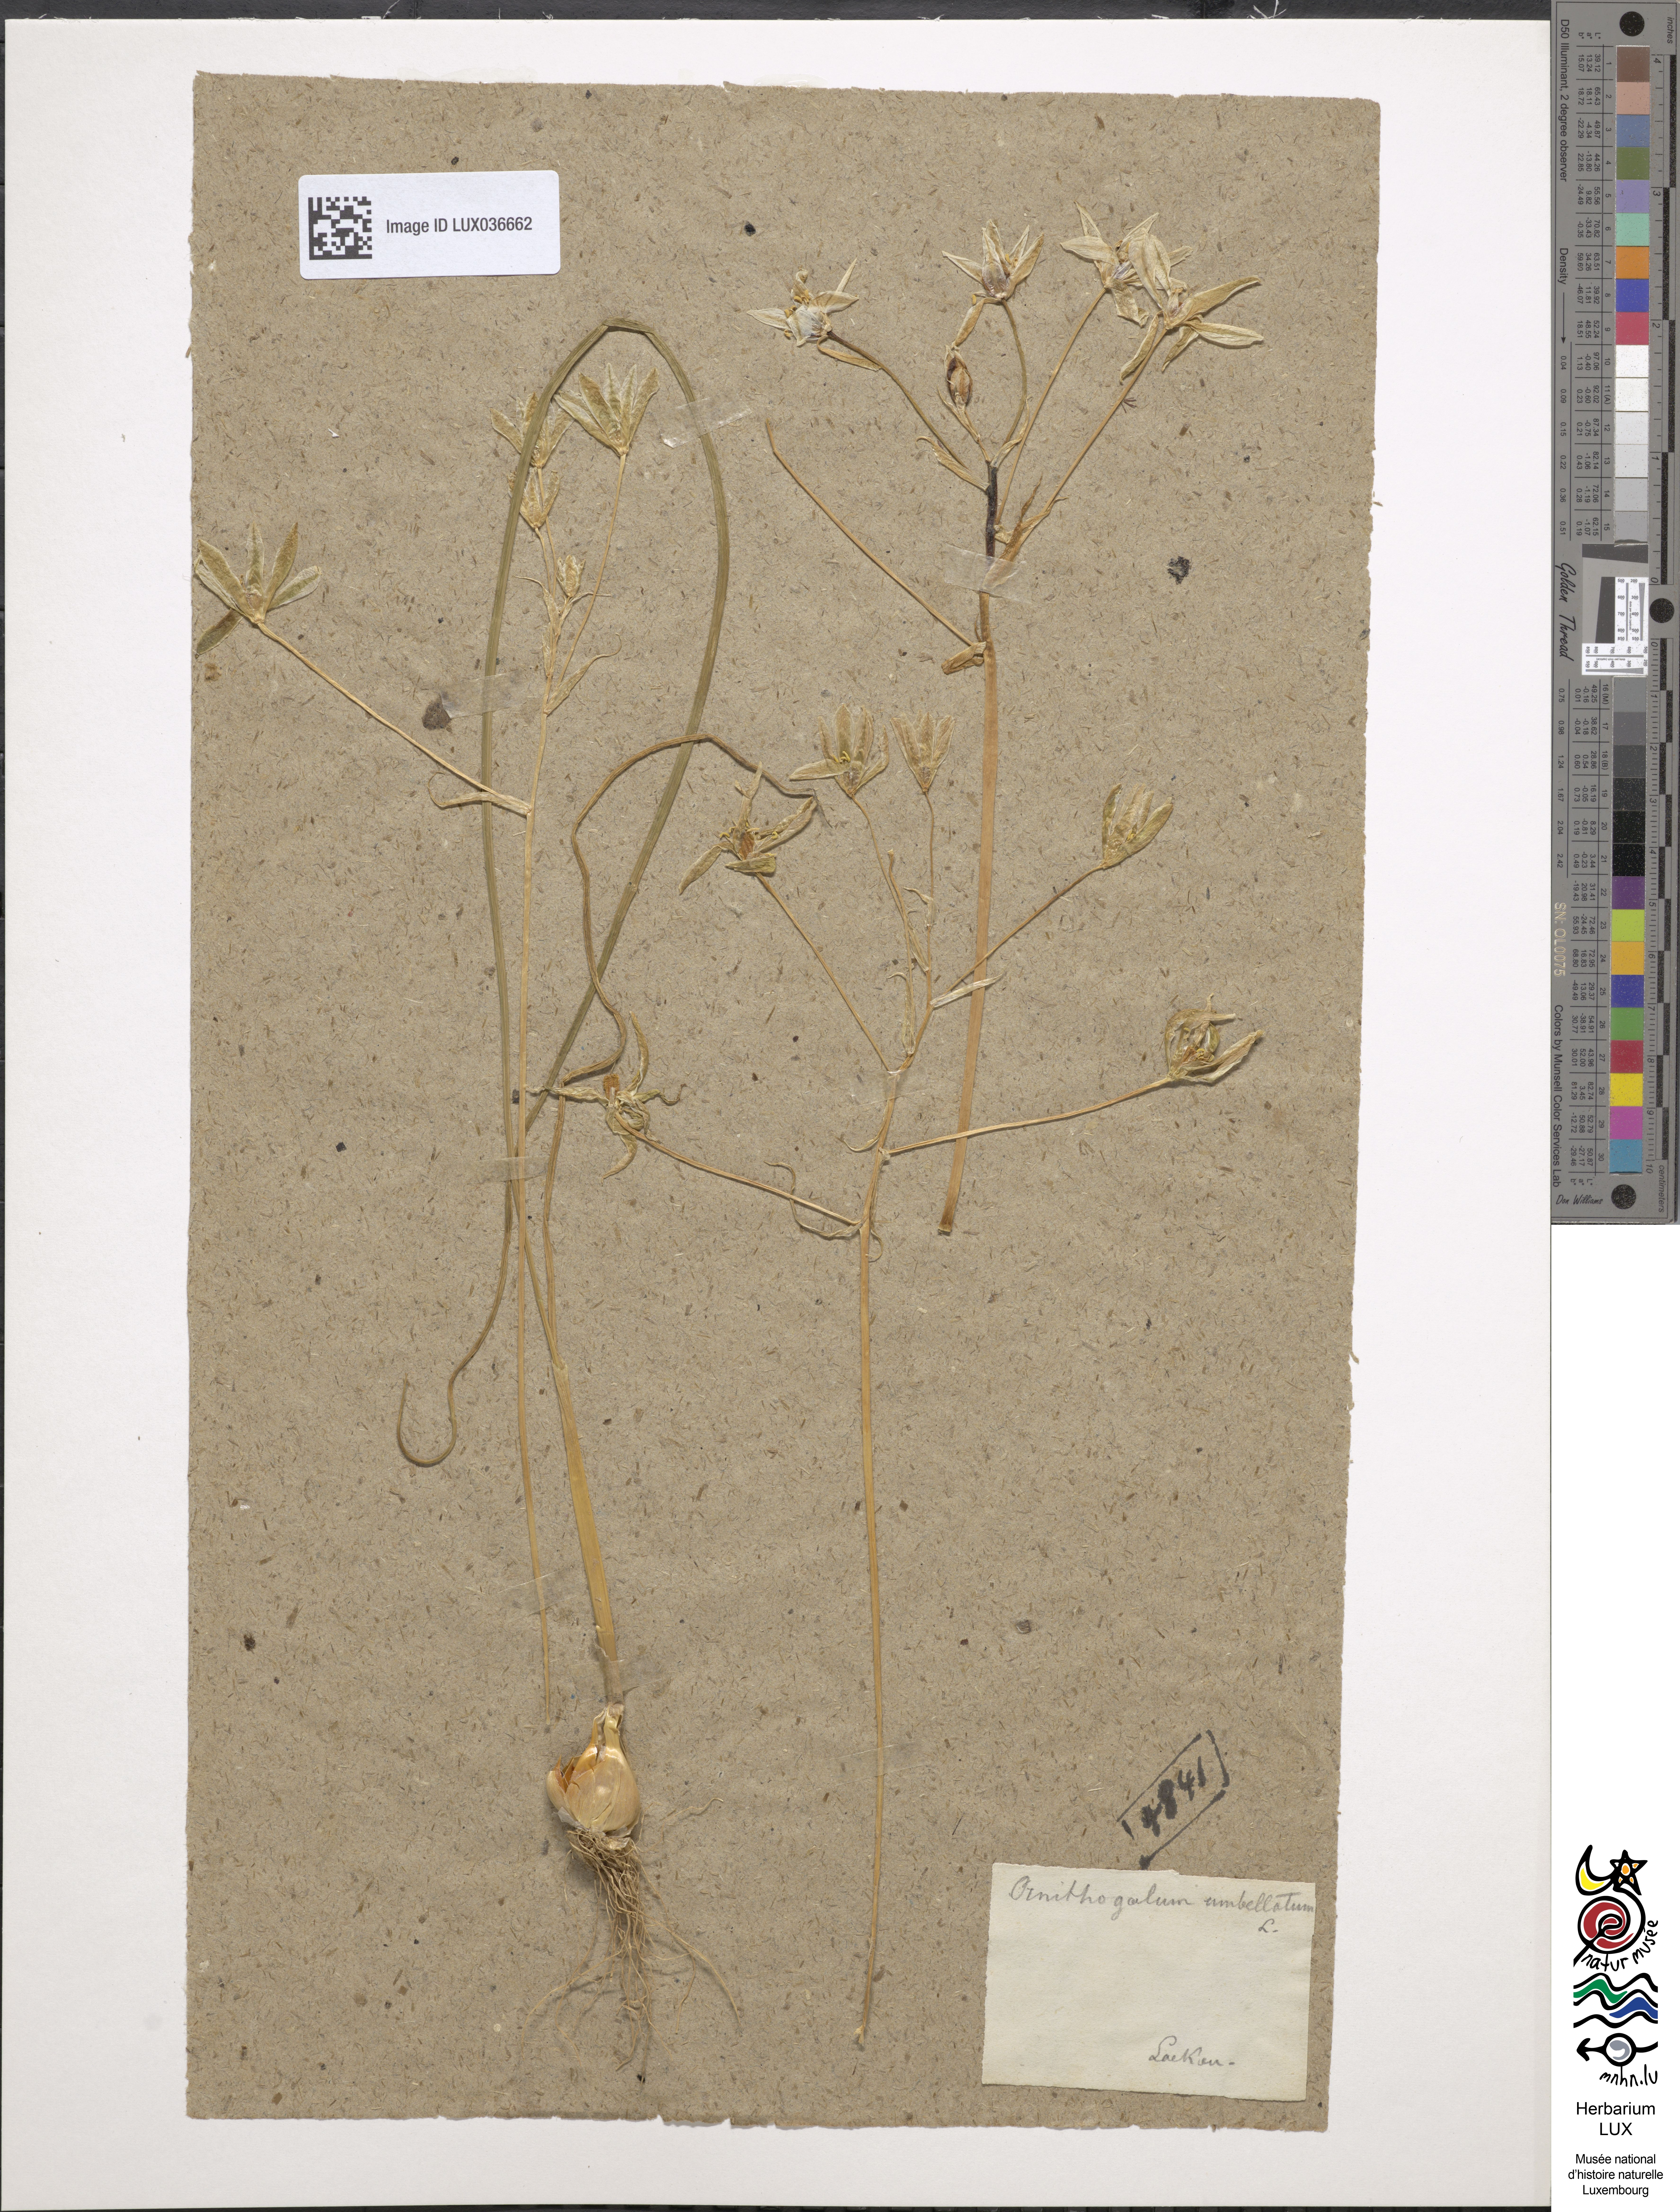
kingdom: Plantae
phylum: Tracheophyta
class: Liliopsida
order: Asparagales
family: Asparagaceae
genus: Ornithogalum
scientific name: Ornithogalum umbellatum
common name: Garden star-of-bethlehem
